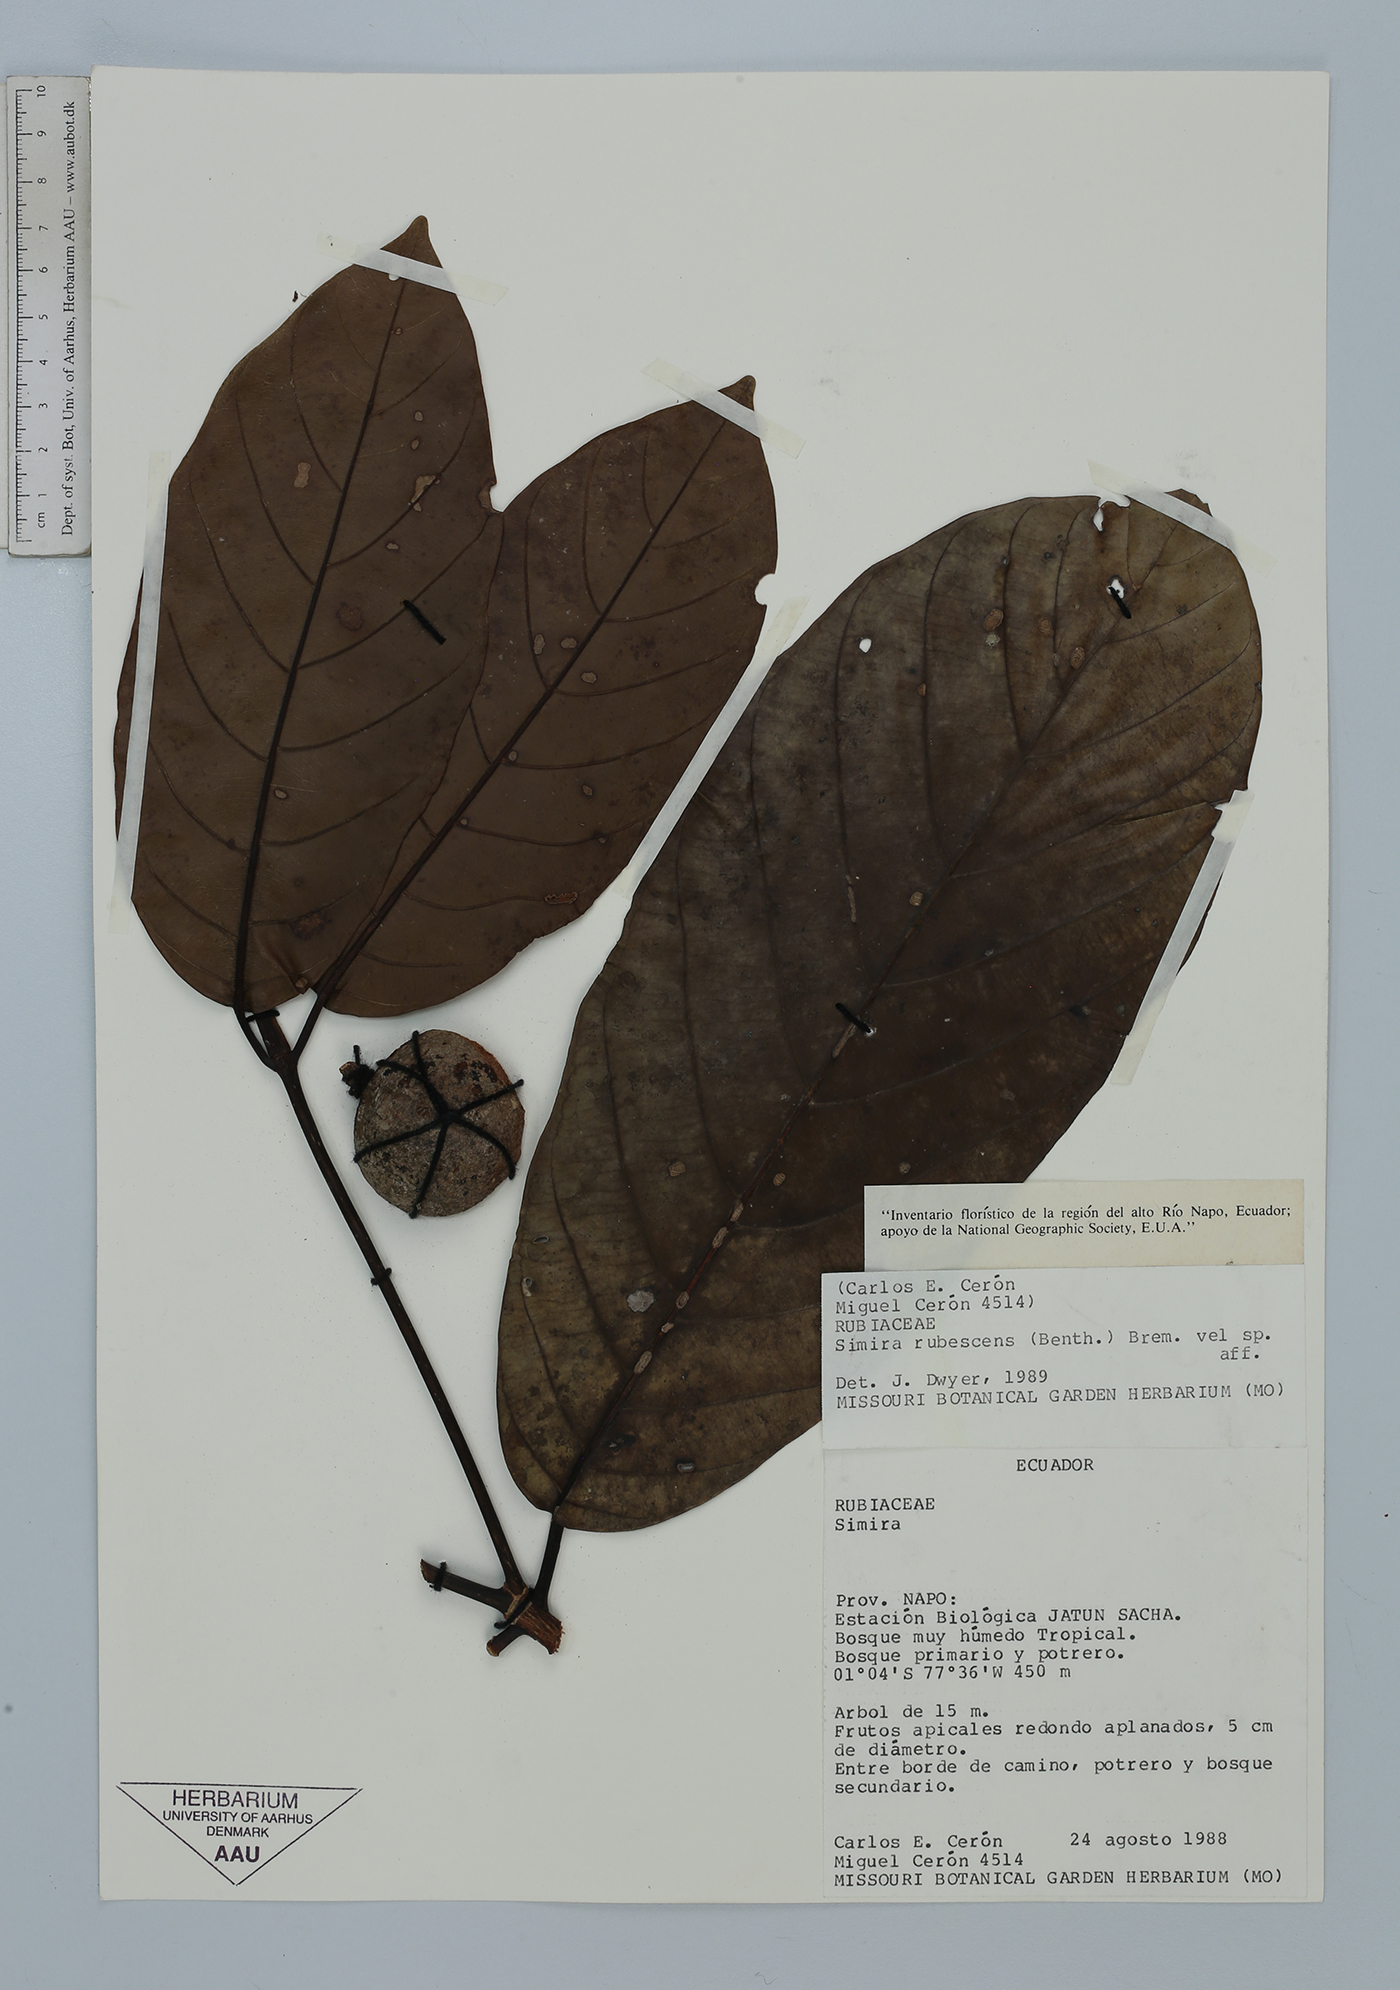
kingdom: Plantae
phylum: Tracheophyta
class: Magnoliopsida
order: Gentianales
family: Rubiaceae
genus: Simira
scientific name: Simira rubescens
